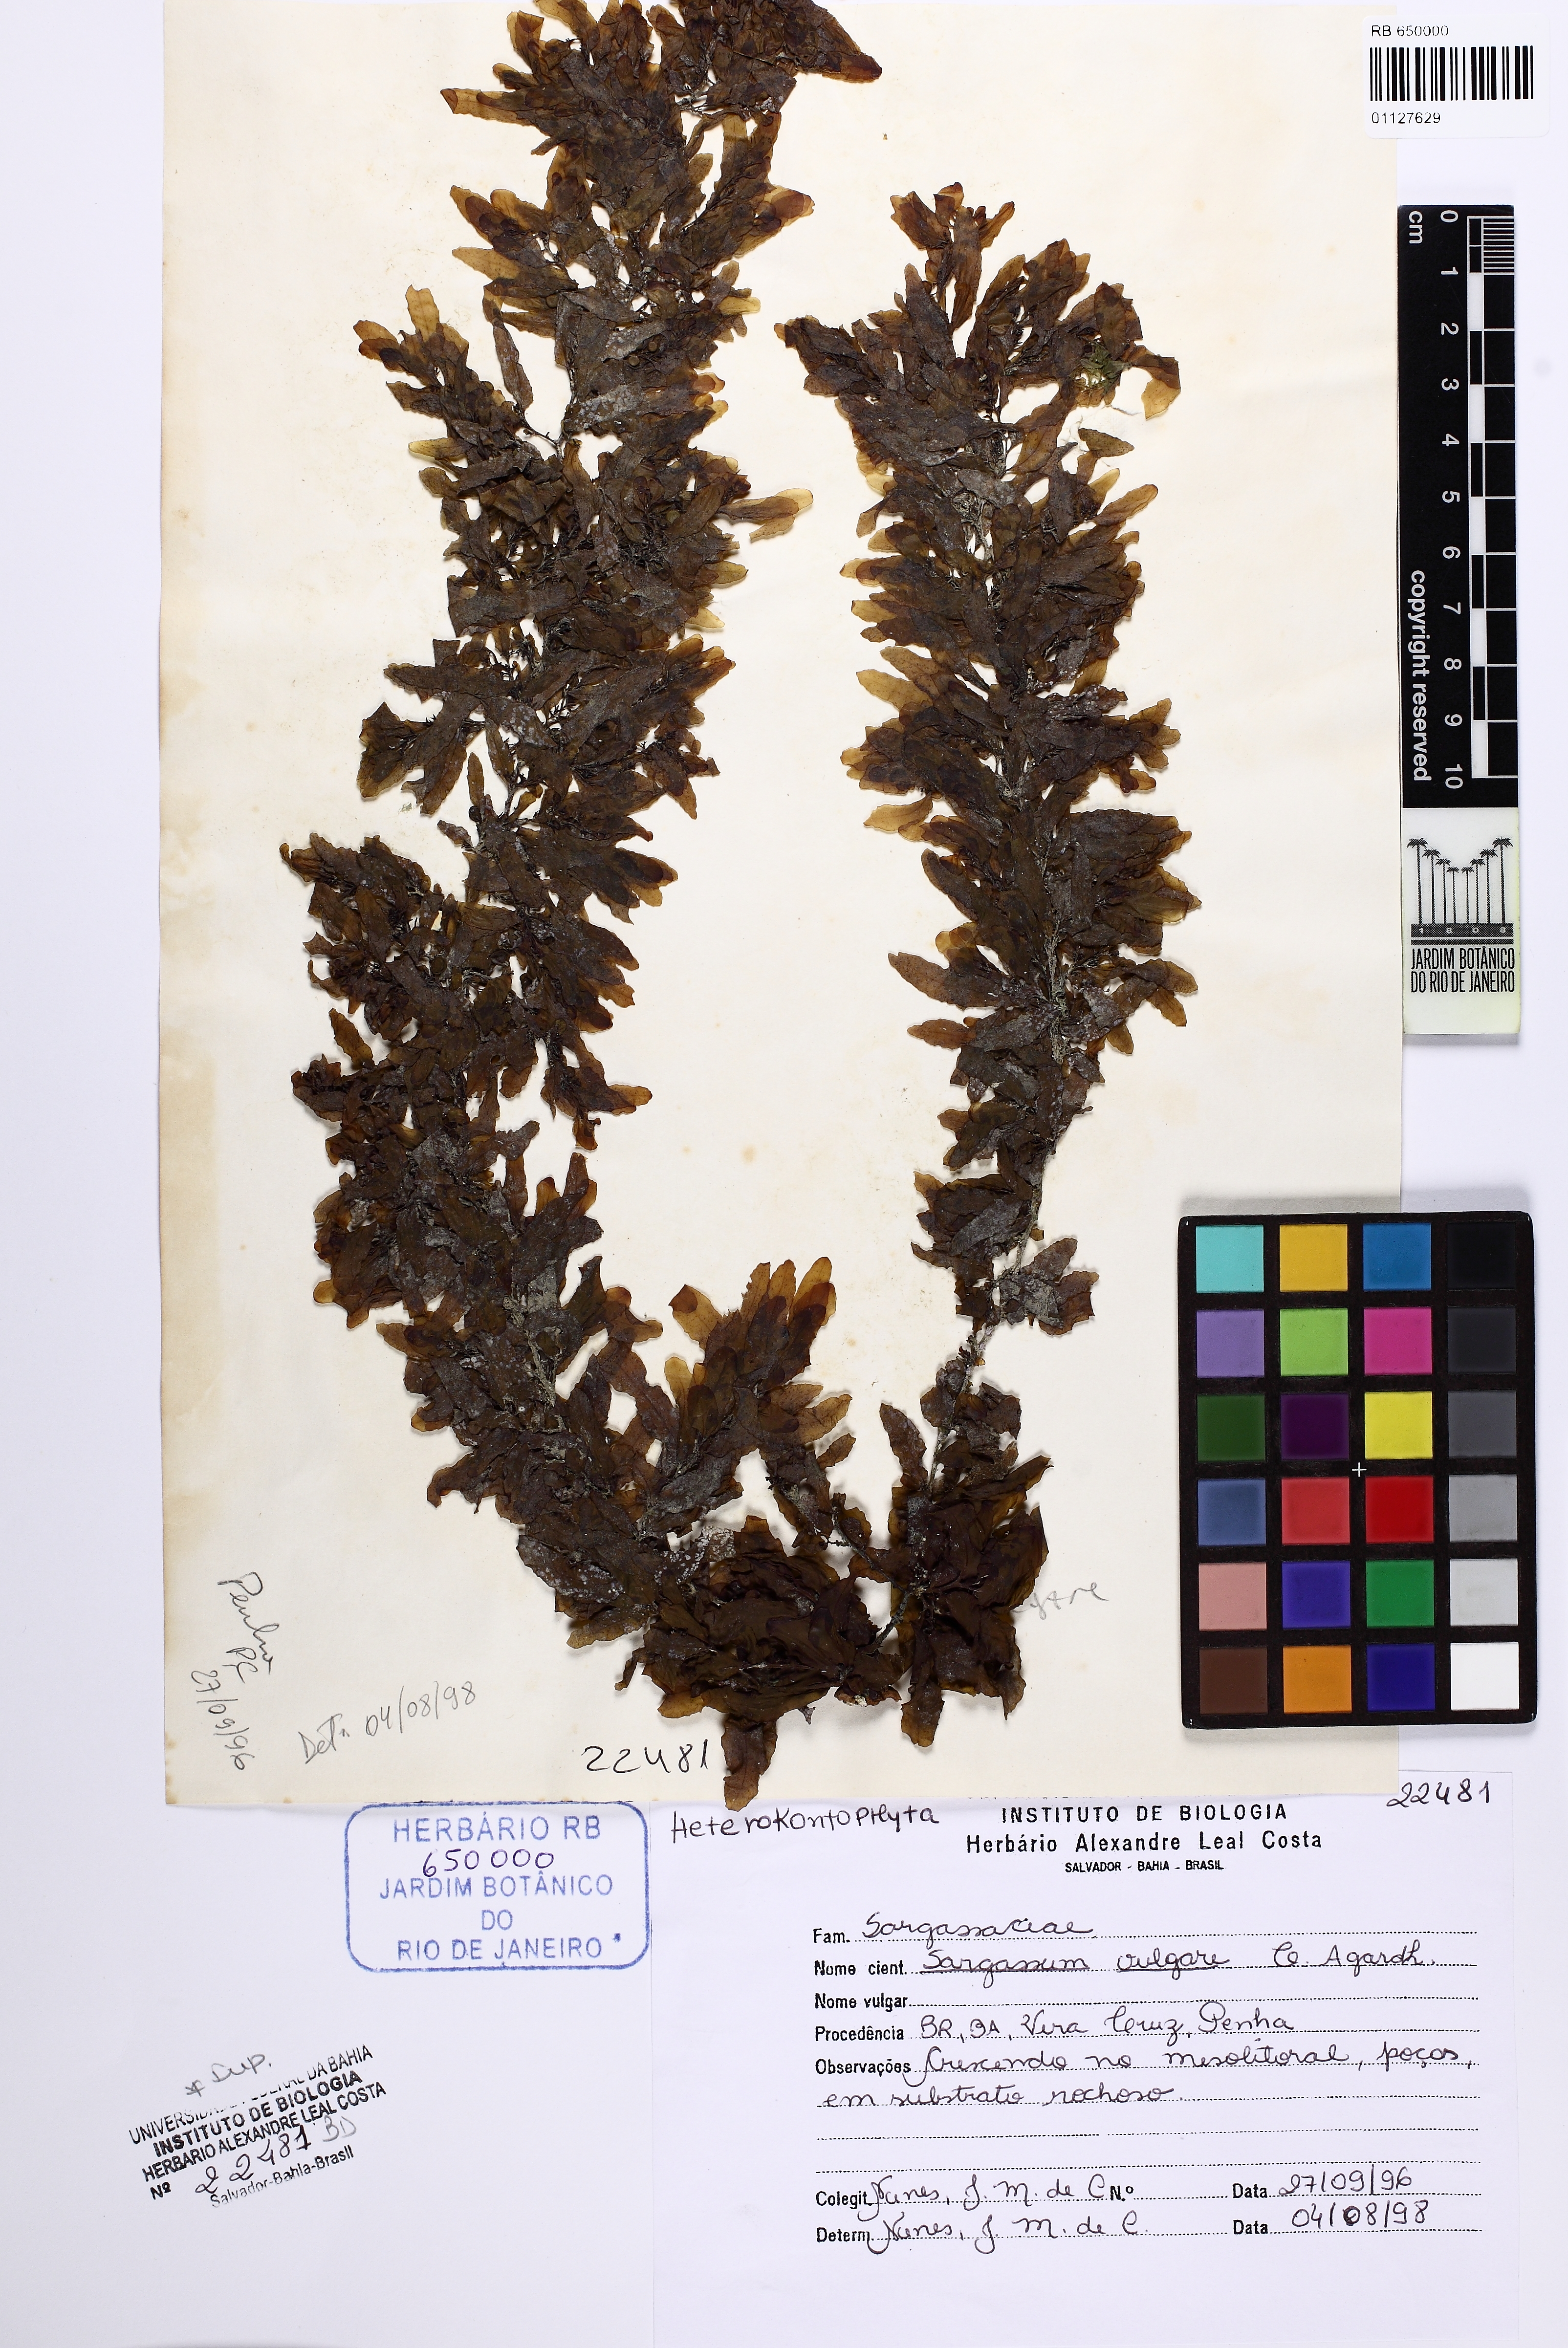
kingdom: Chromista
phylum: Ochrophyta
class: Phaeophyceae
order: Fucales
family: Sargassaceae
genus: Sargassum
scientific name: Sargassum vulgare
